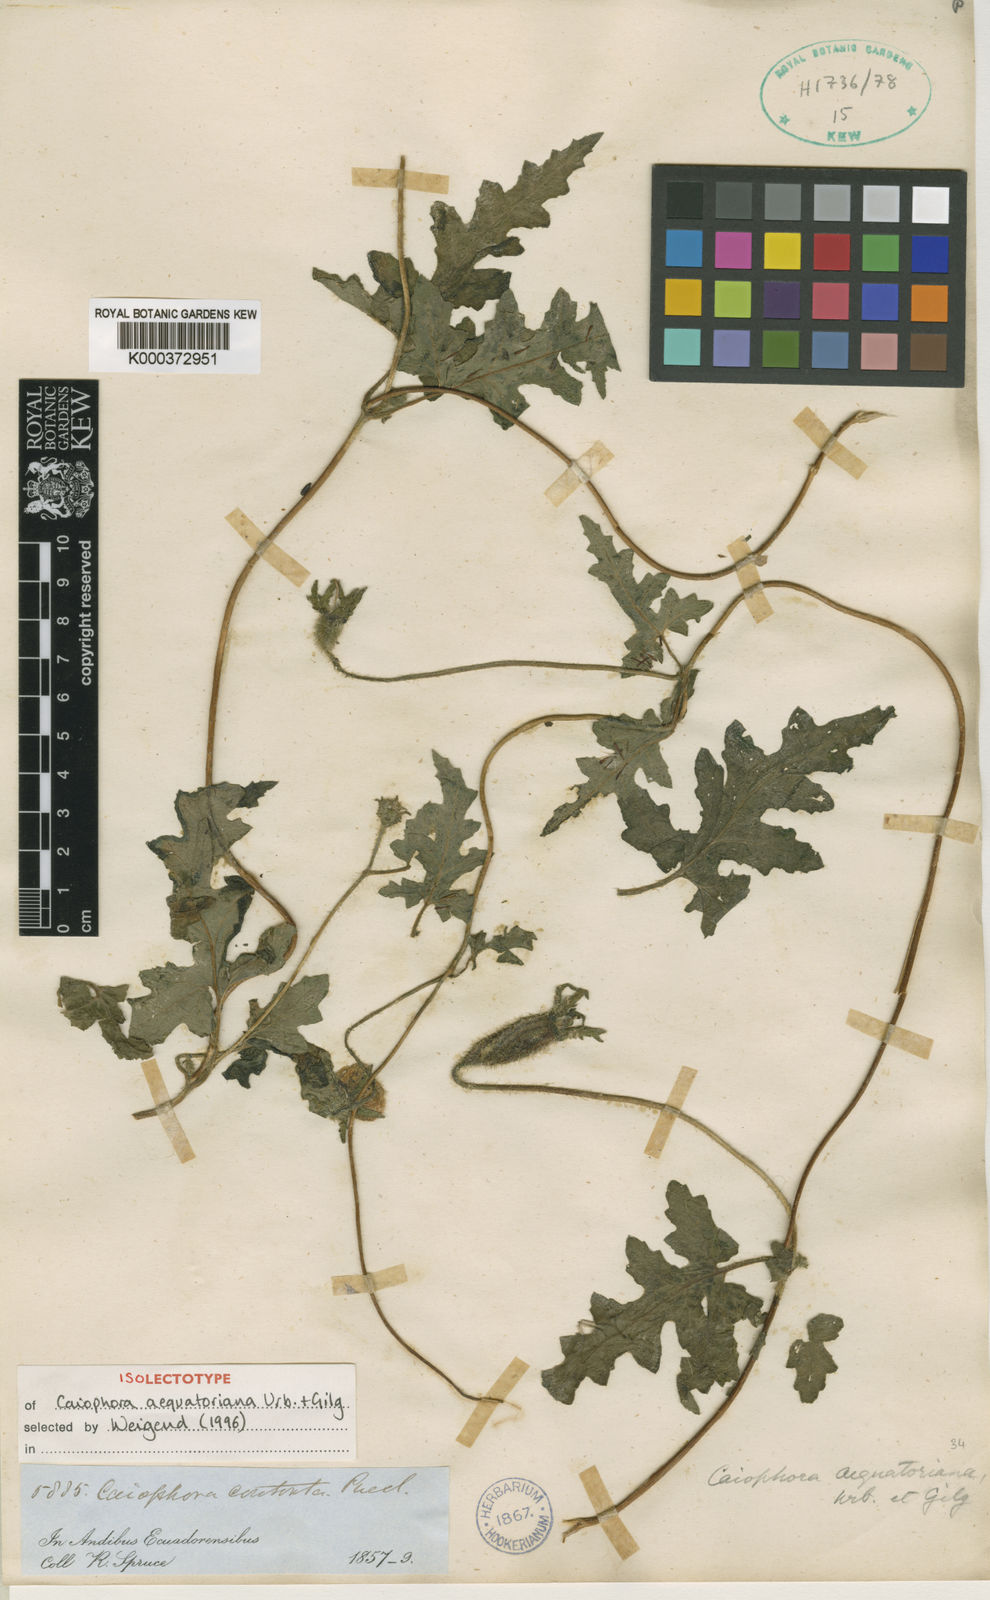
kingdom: Plantae
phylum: Tracheophyta
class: Magnoliopsida
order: Cornales
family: Loasaceae
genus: Caiophora
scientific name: Caiophora contorta
